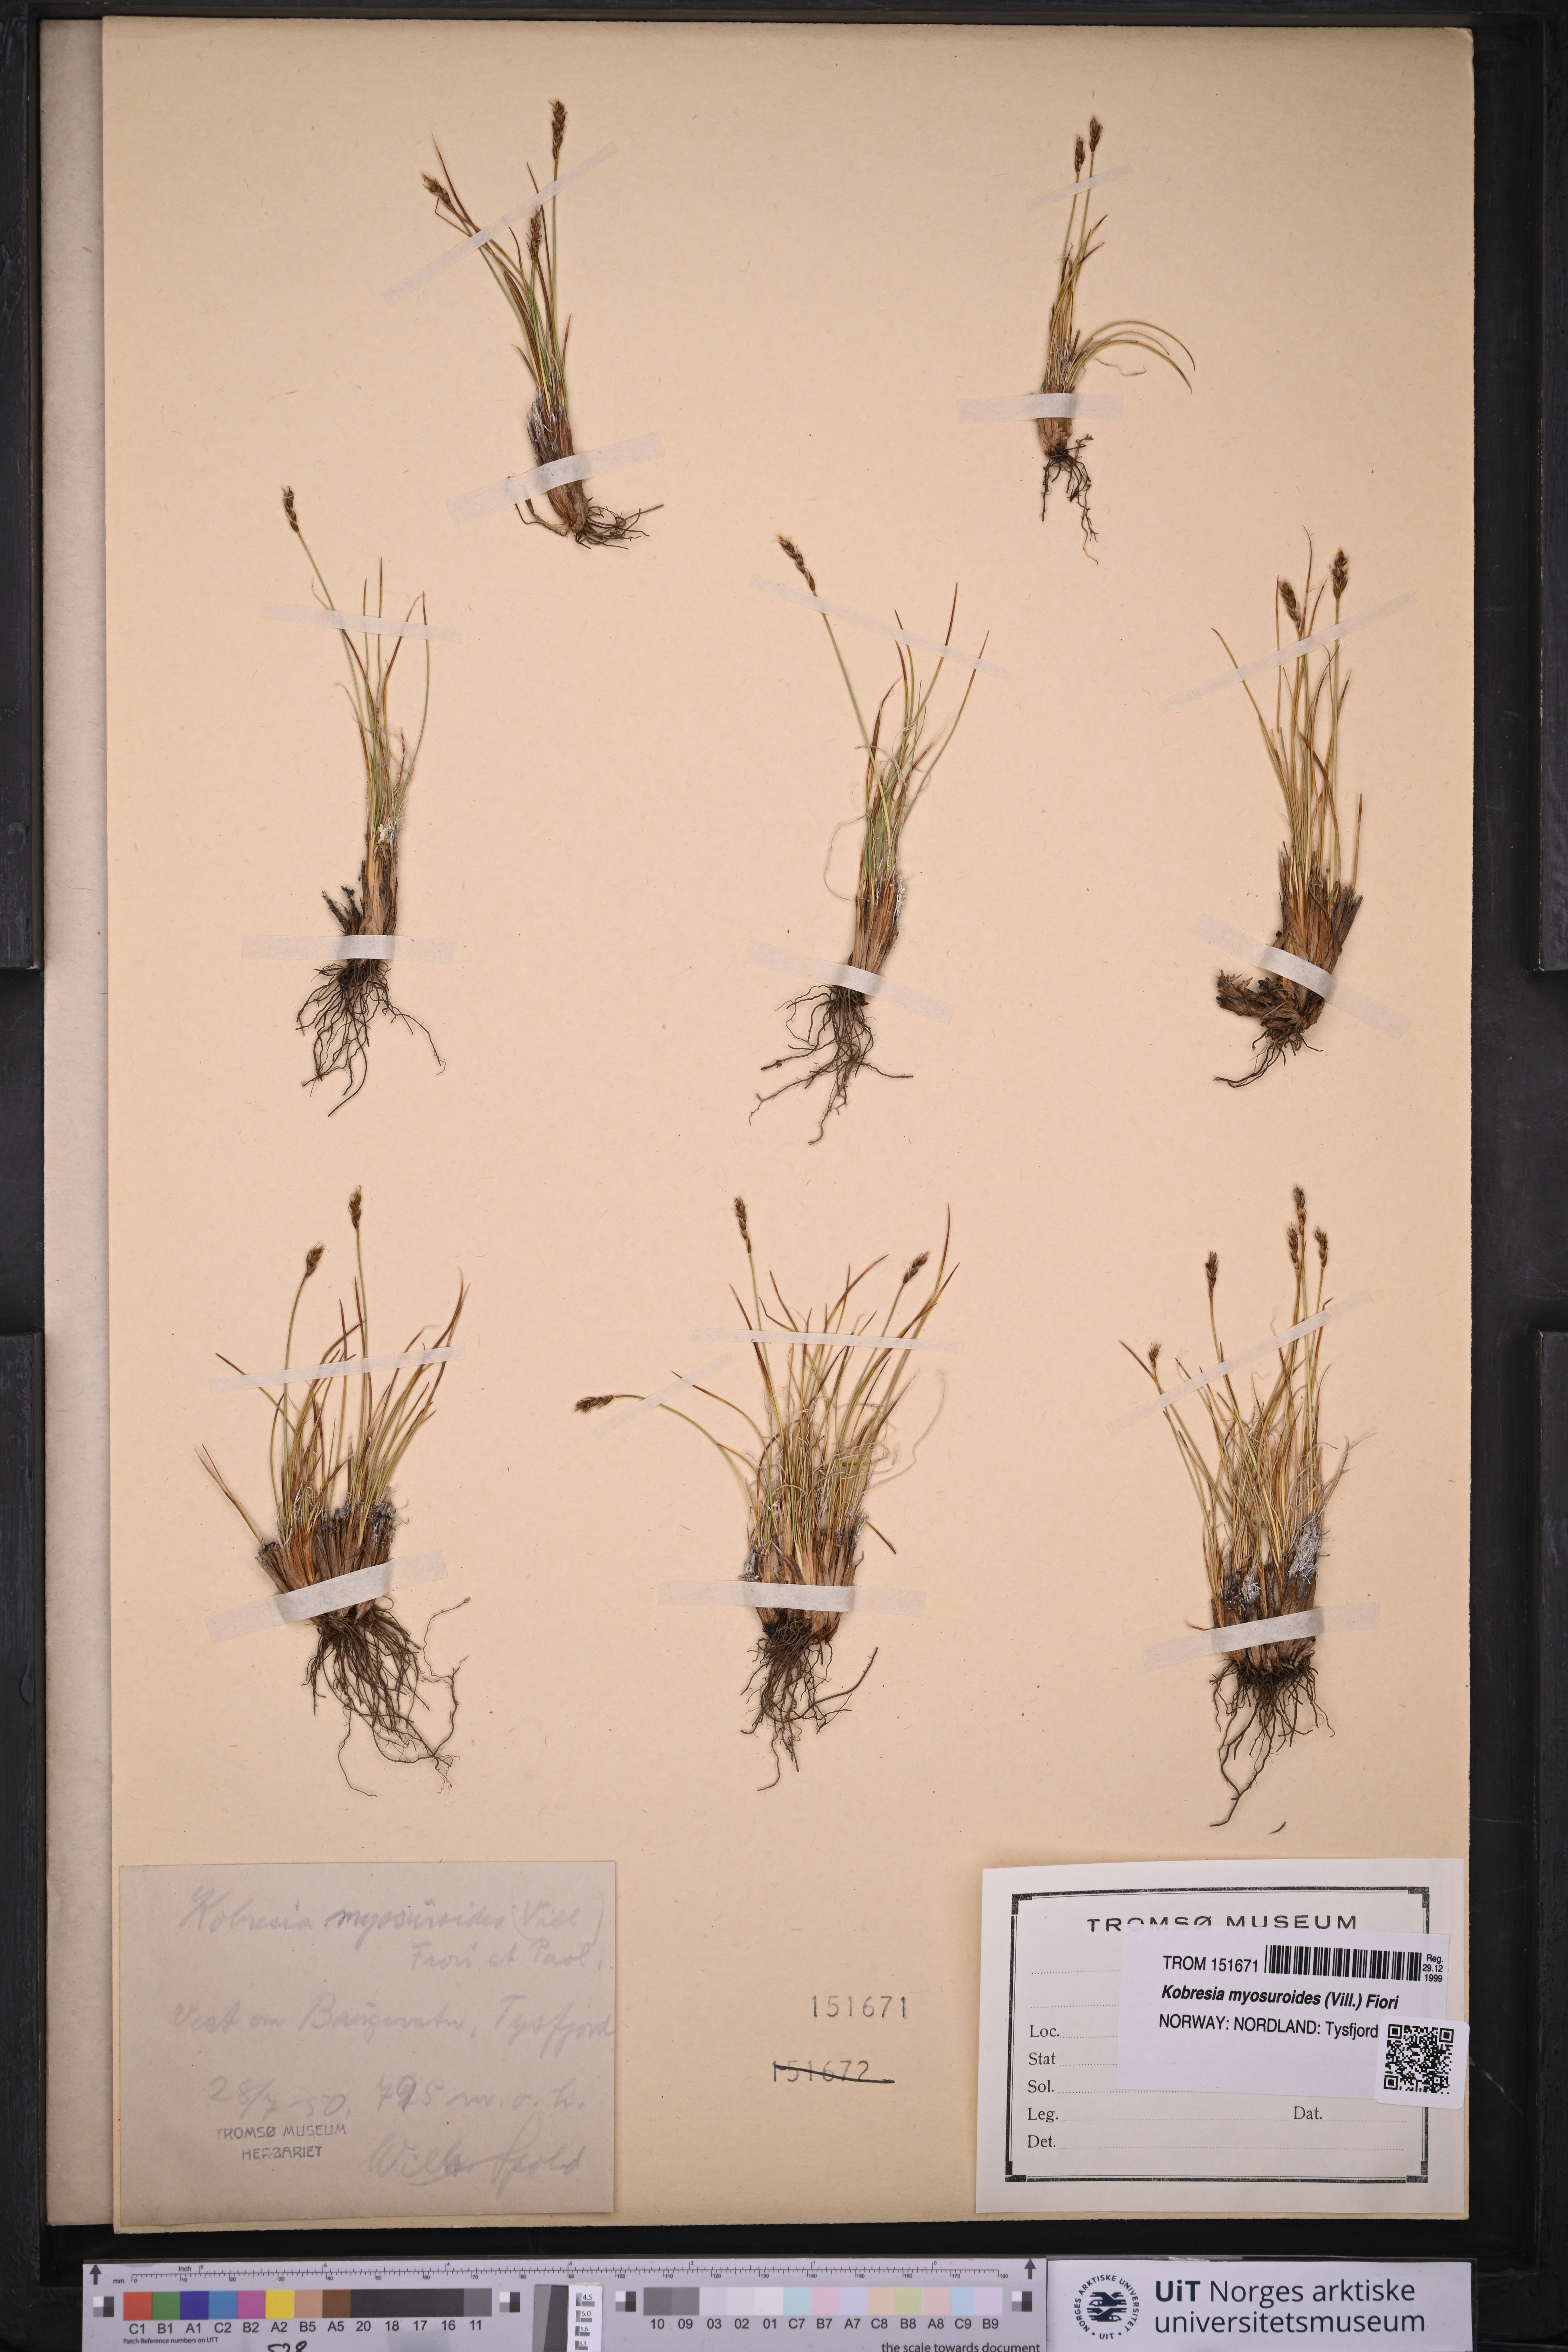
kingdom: Plantae
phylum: Tracheophyta
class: Liliopsida
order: Poales
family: Cyperaceae
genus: Carex
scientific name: Carex myosuroides
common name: Bellard's bog sedge
